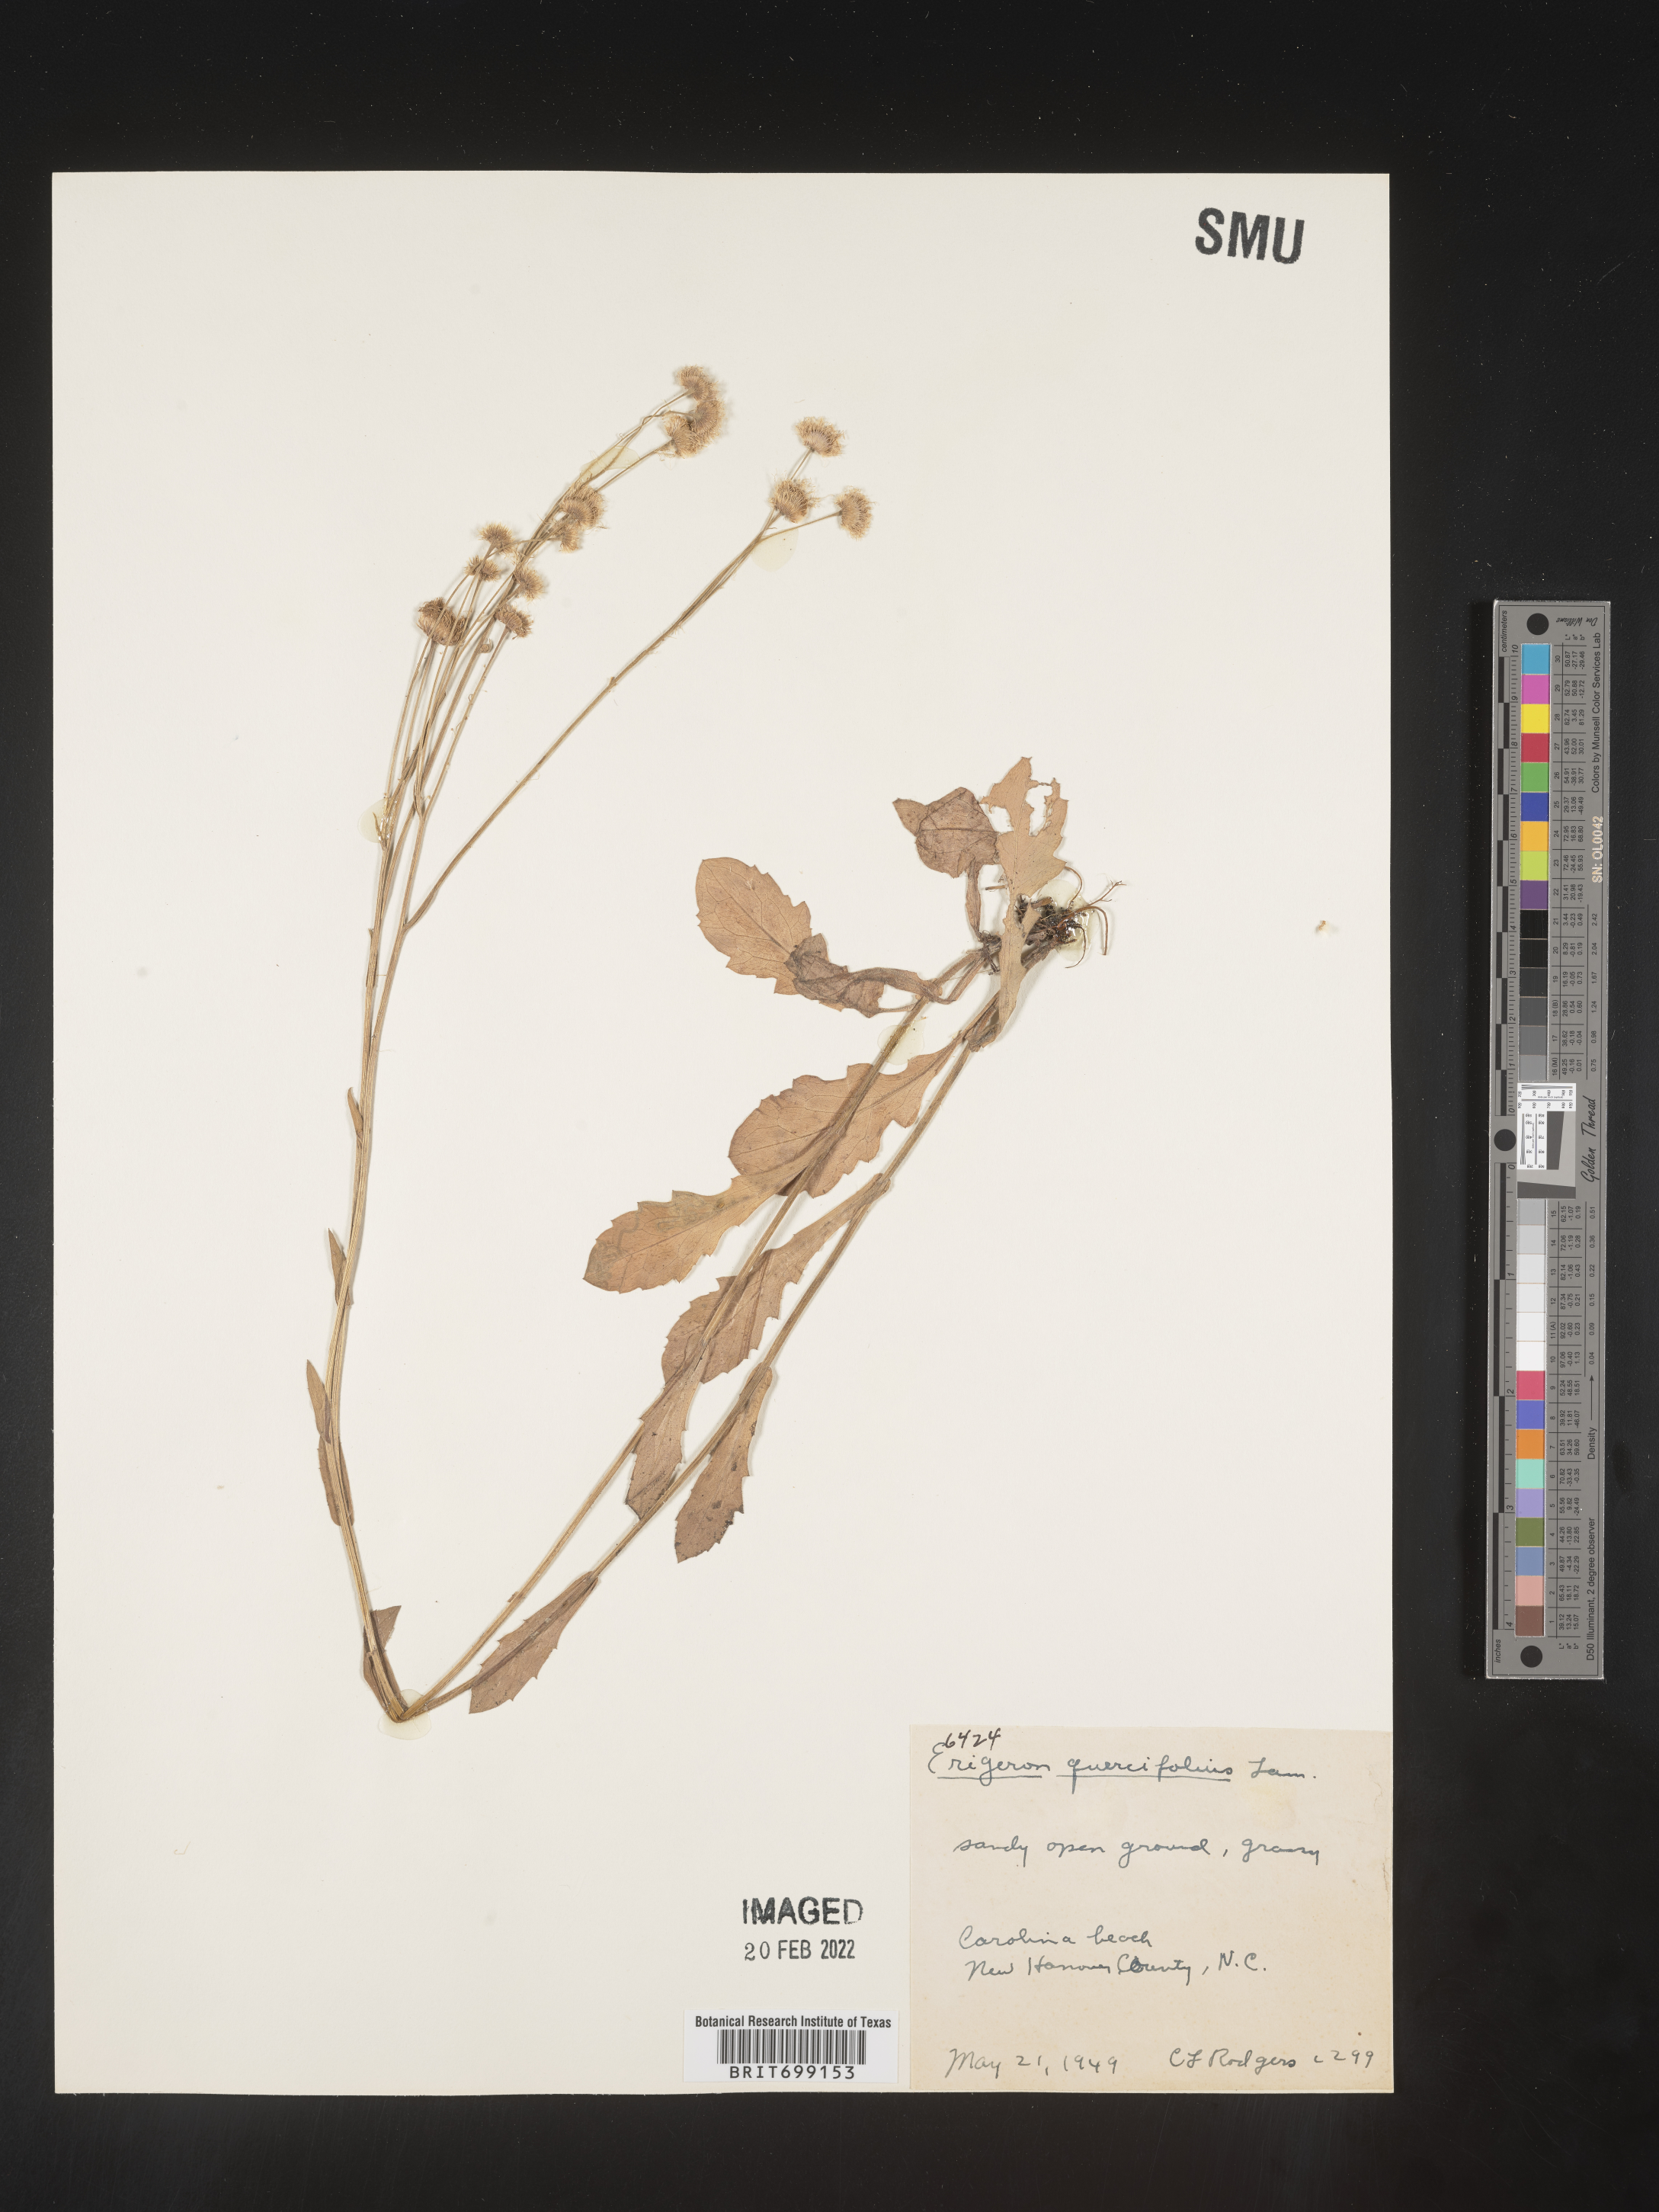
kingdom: Plantae
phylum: Tracheophyta
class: Magnoliopsida
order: Asterales
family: Asteraceae
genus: Erigeron
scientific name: Erigeron quercifolius
